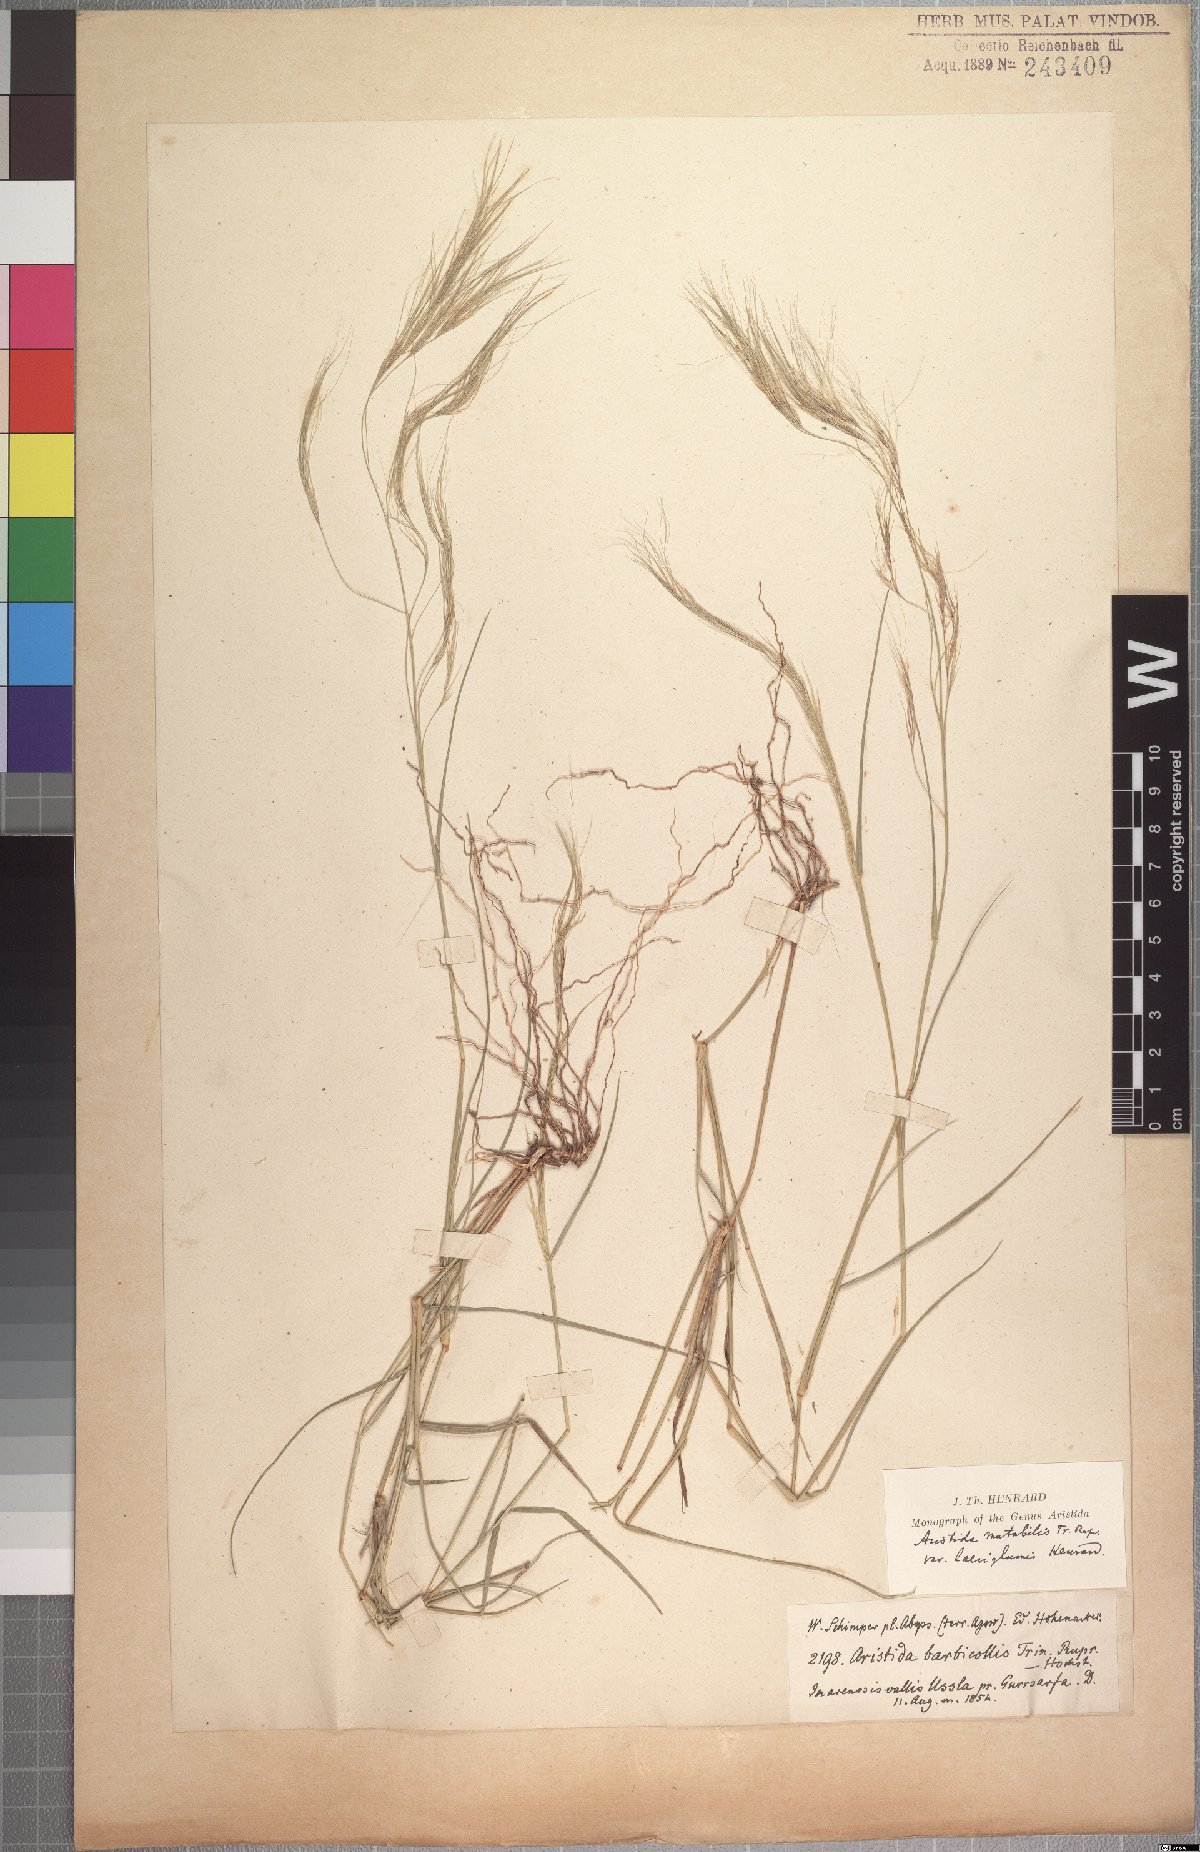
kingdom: Plantae
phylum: Tracheophyta
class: Liliopsida
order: Poales
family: Poaceae
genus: Aristida
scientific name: Aristida mutabilis
